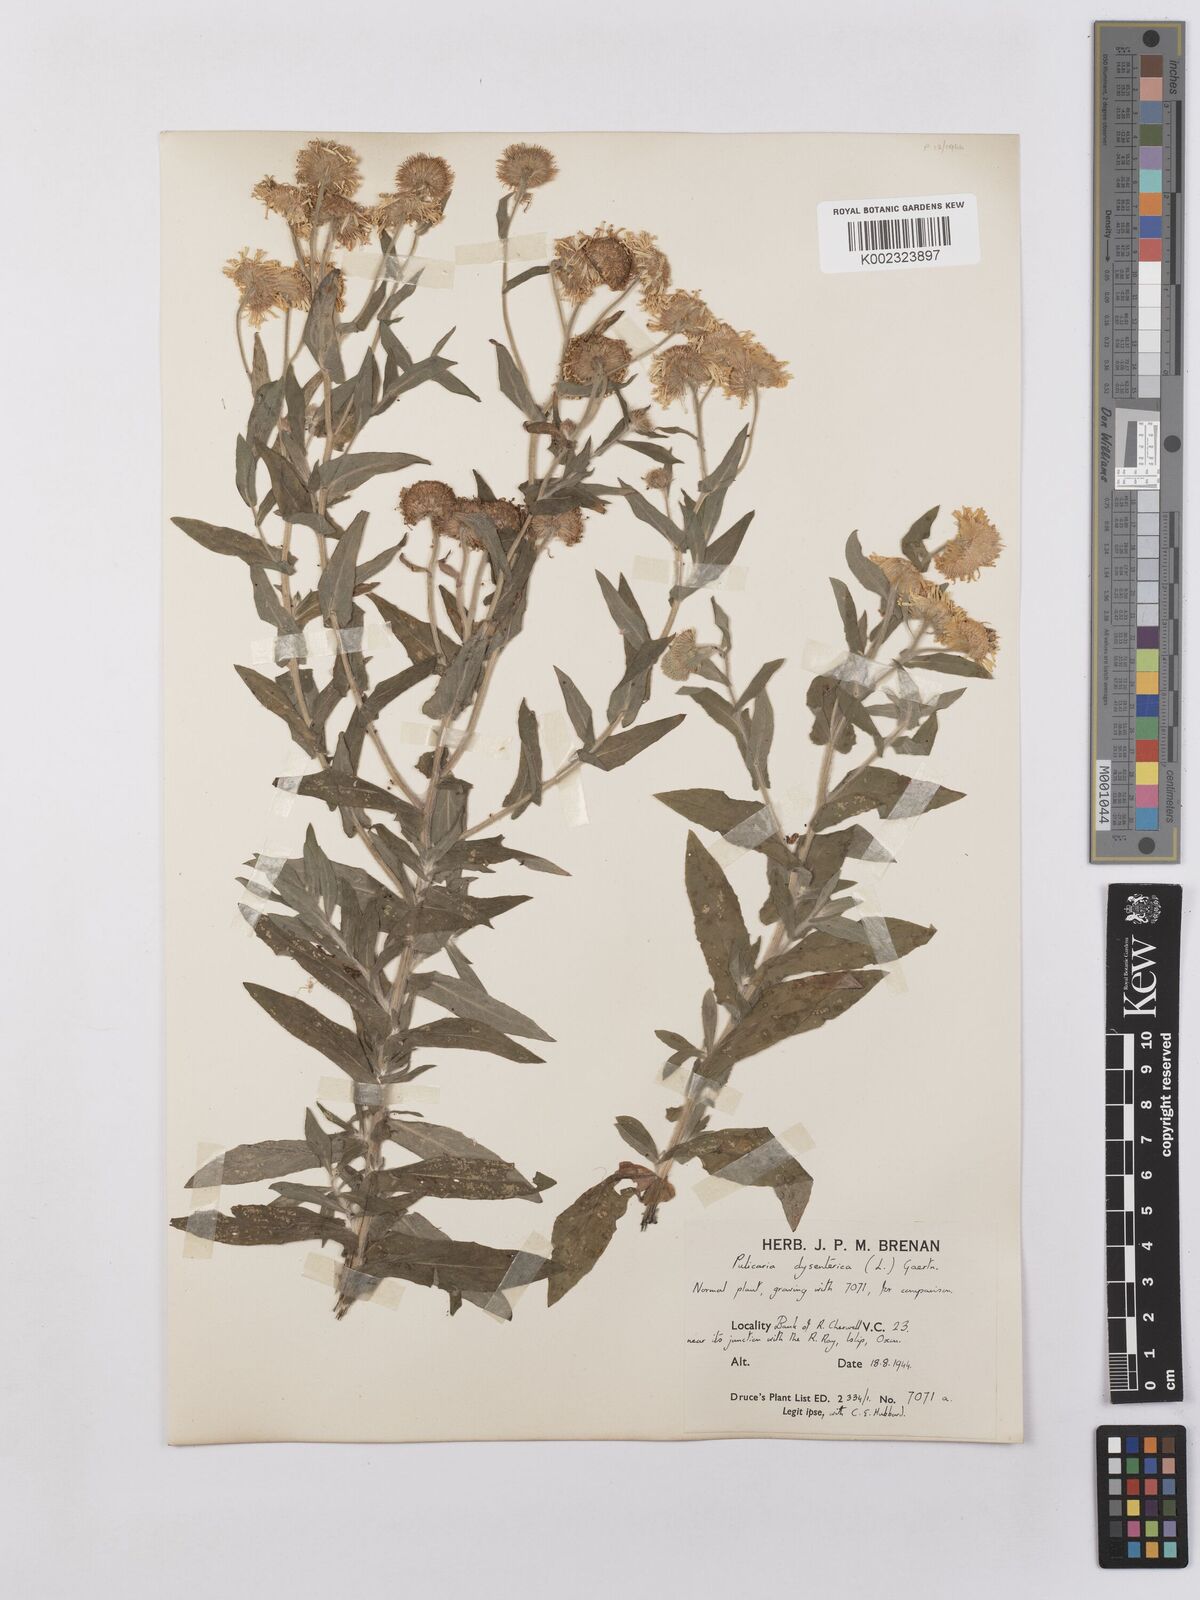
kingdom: Plantae
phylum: Tracheophyta
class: Magnoliopsida
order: Asterales
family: Asteraceae
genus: Pulicaria
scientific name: Pulicaria dysenterica
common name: Common fleabane
